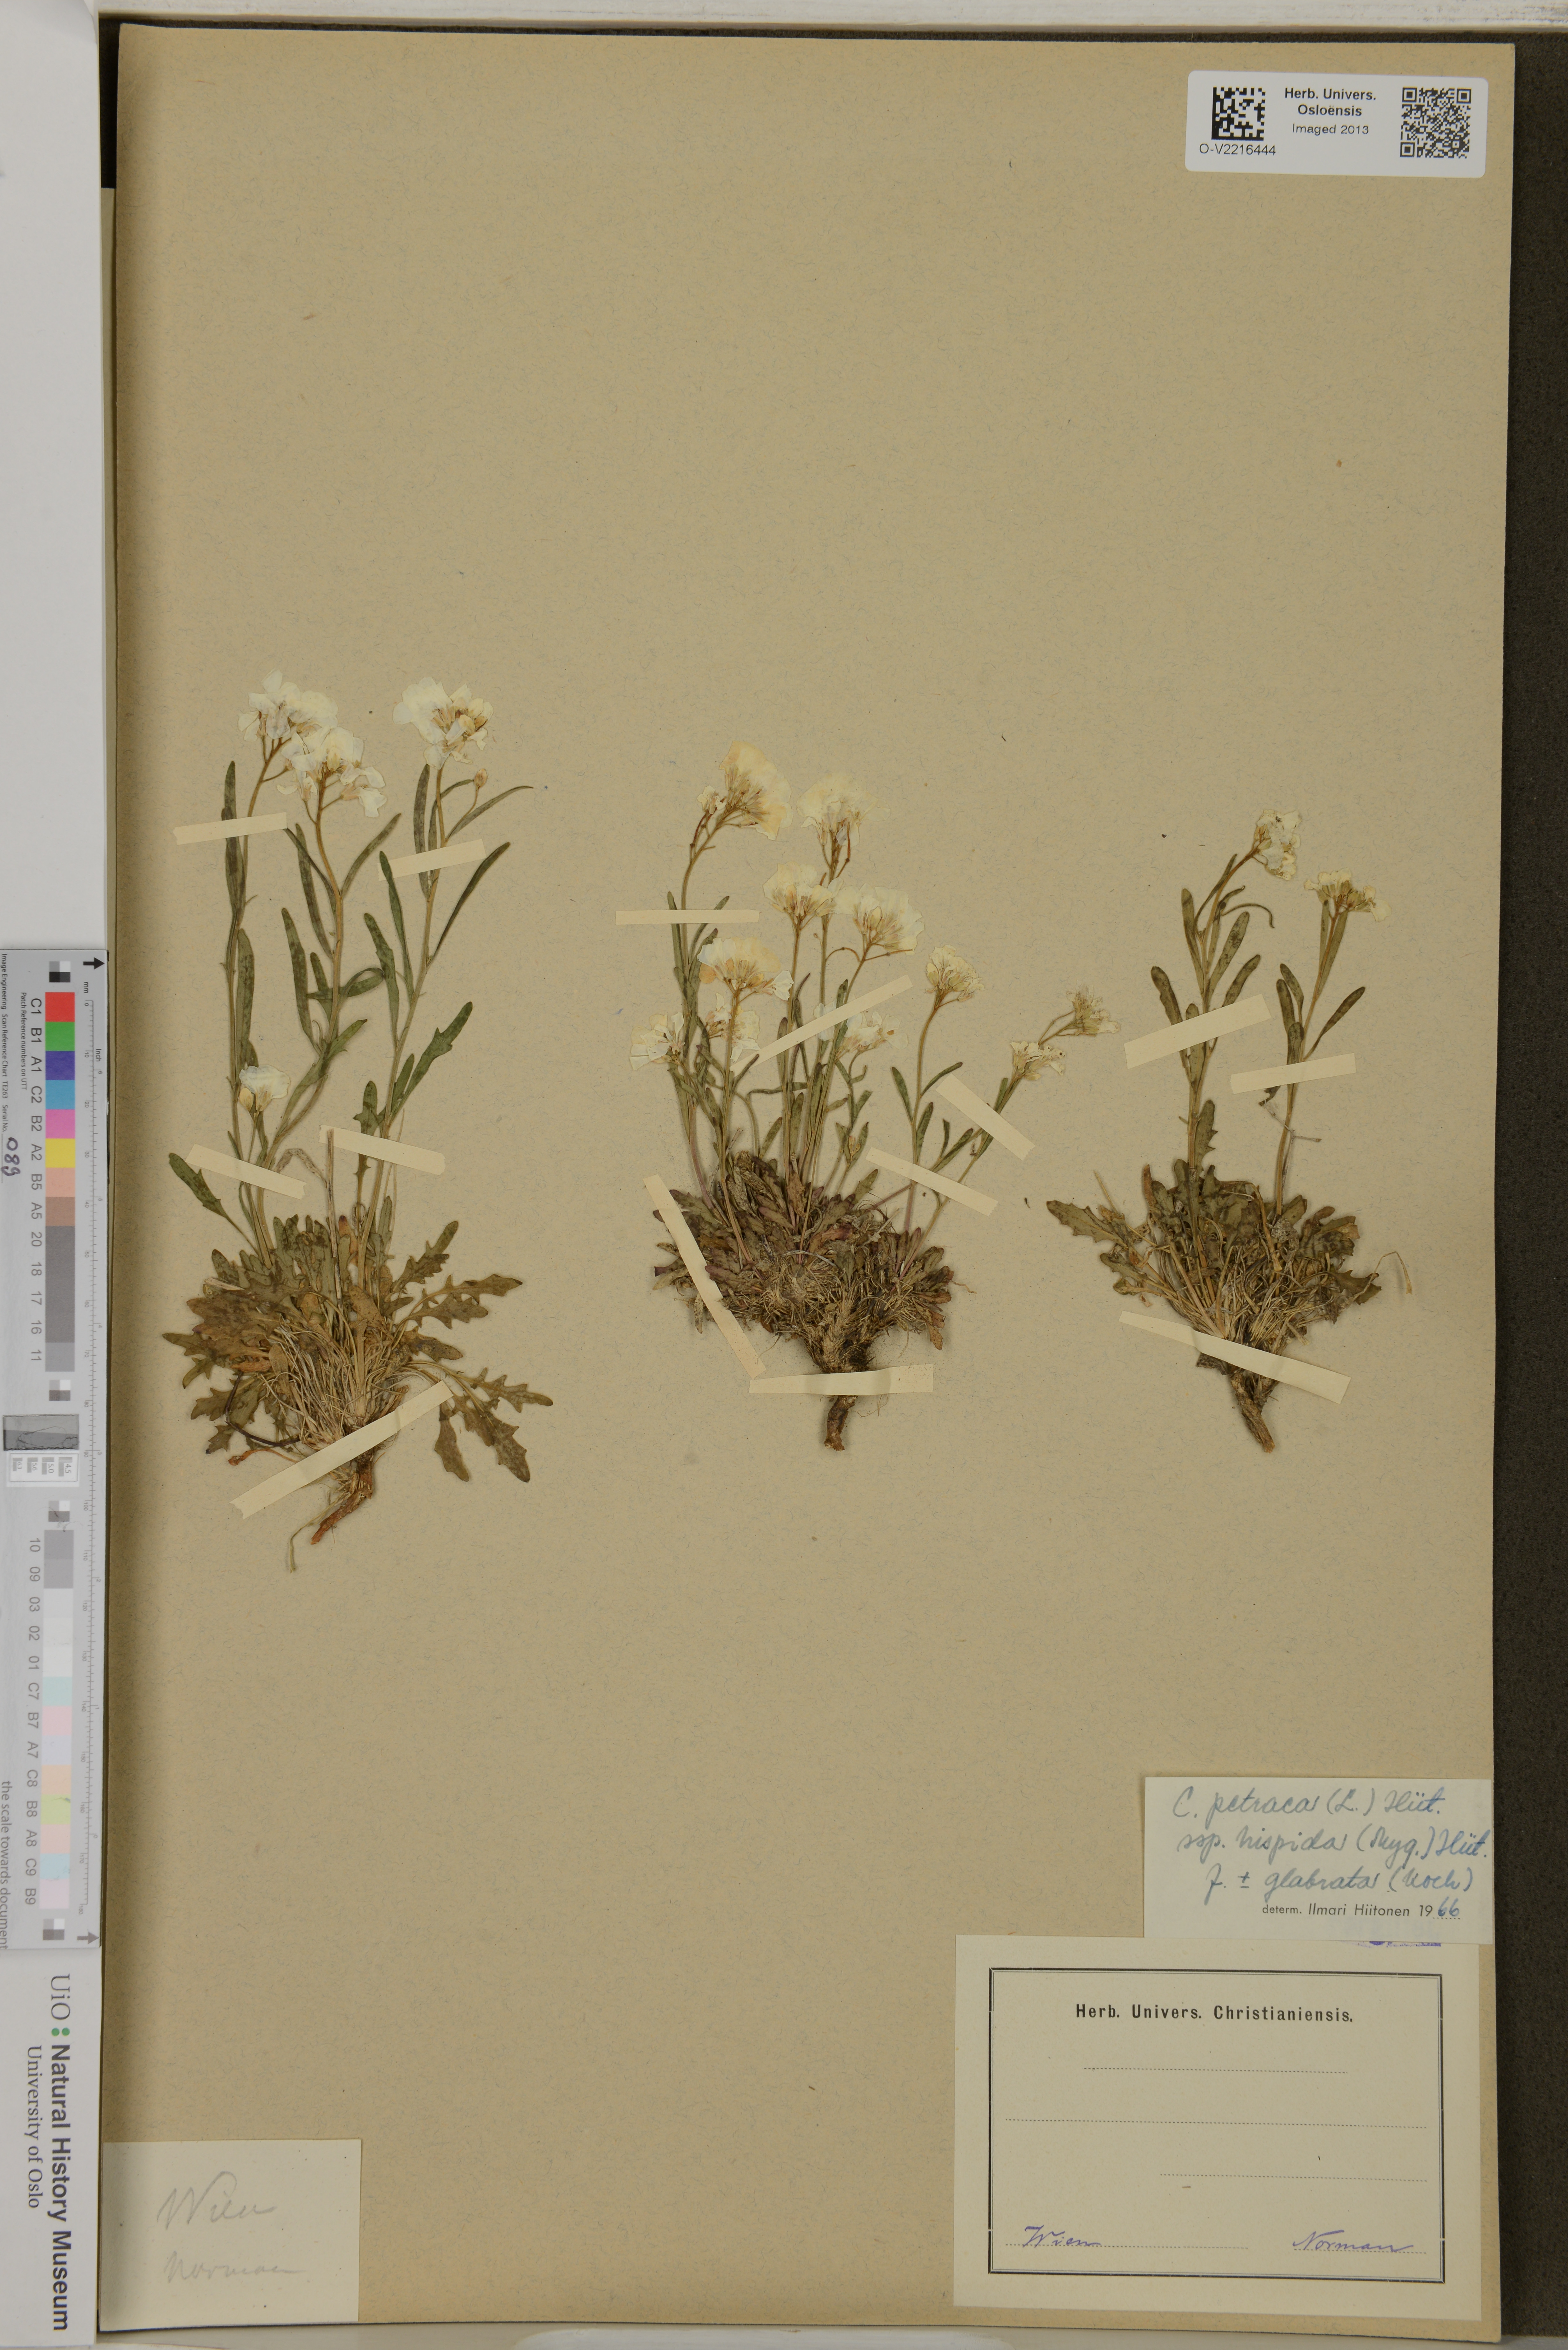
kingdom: Plantae
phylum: Tracheophyta
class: Magnoliopsida
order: Brassicales
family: Brassicaceae
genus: Arabidopsis
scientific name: Arabidopsis lyrata
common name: Lyrate rockcress
